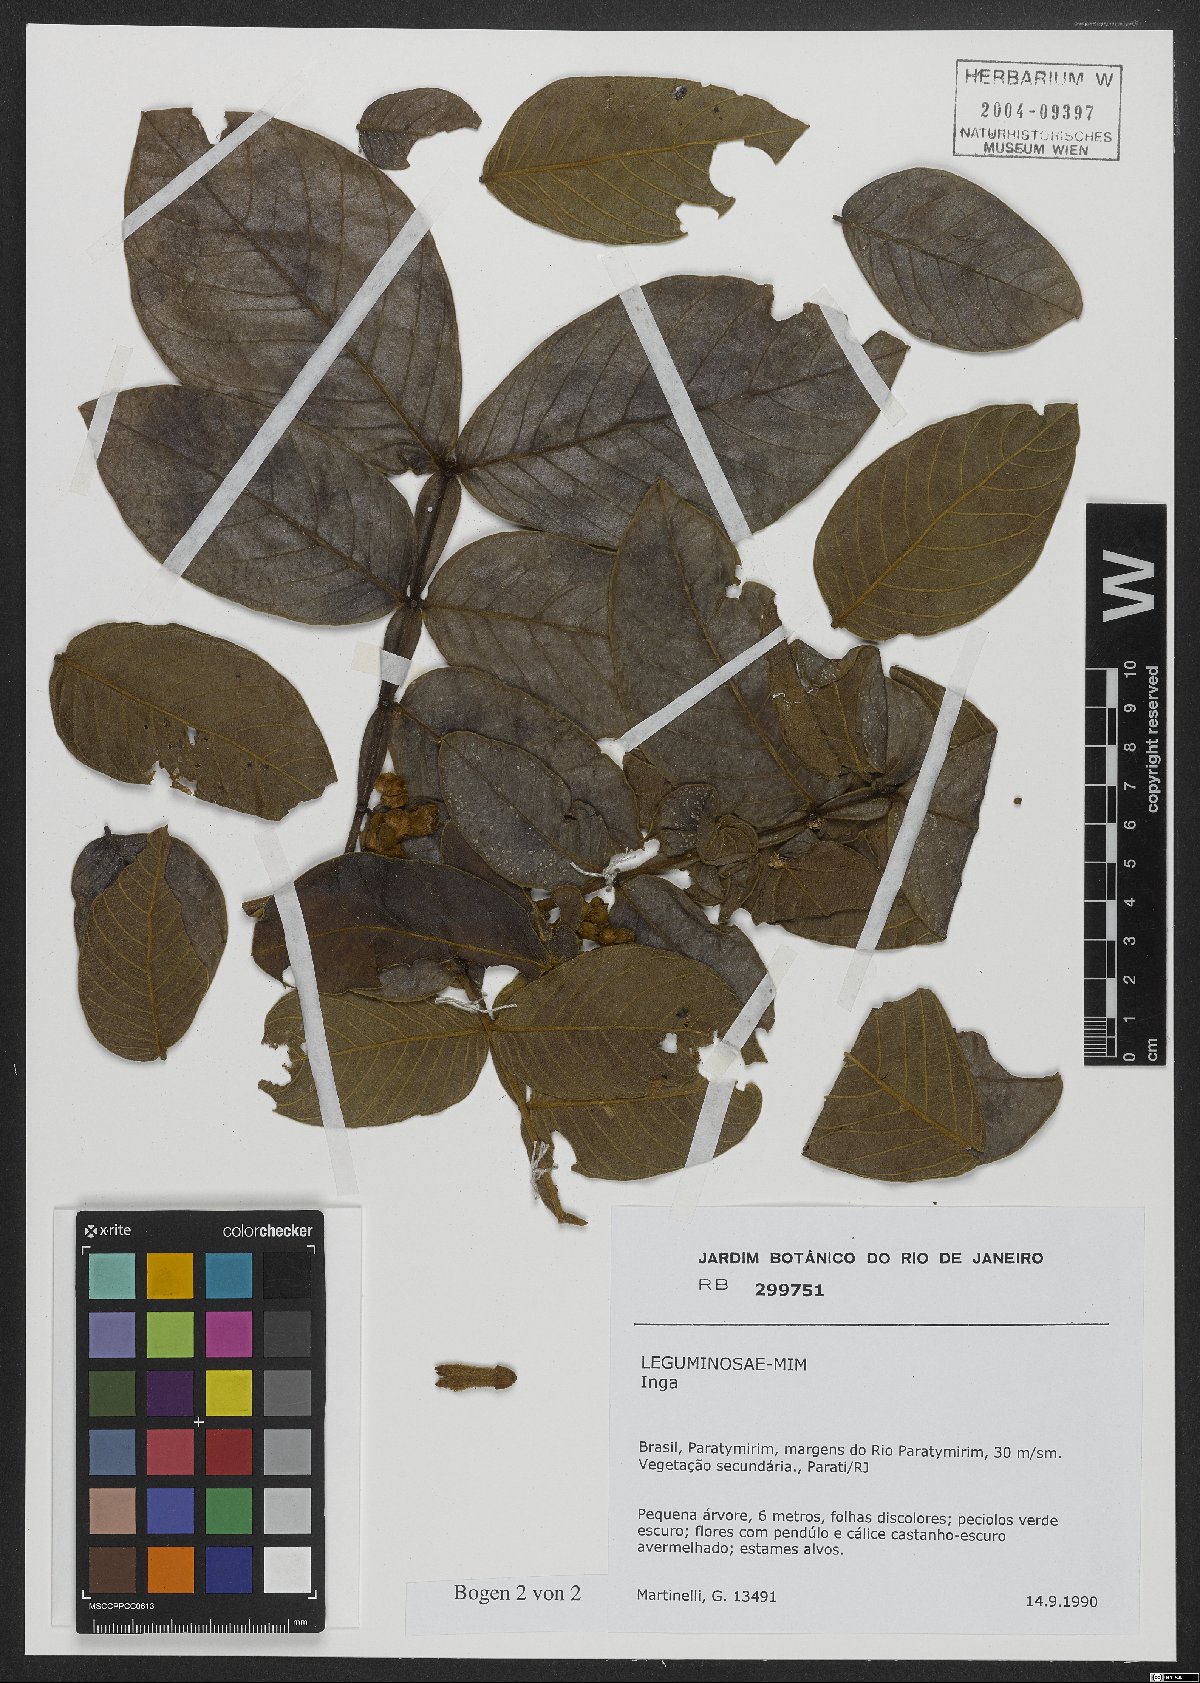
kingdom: Plantae
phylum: Tracheophyta
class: Magnoliopsida
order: Fabales
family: Fabaceae
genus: Inga
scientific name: Inga
